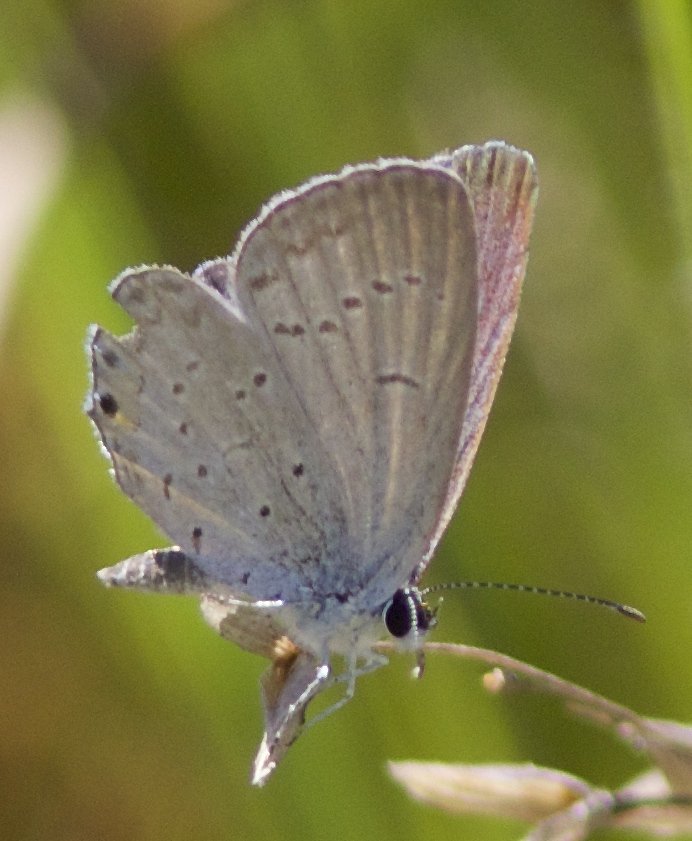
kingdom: Animalia
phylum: Arthropoda
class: Insecta
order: Lepidoptera
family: Lycaenidae
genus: Elkalyce
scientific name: Elkalyce comyntas
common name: Eastern Tailed-Blue
